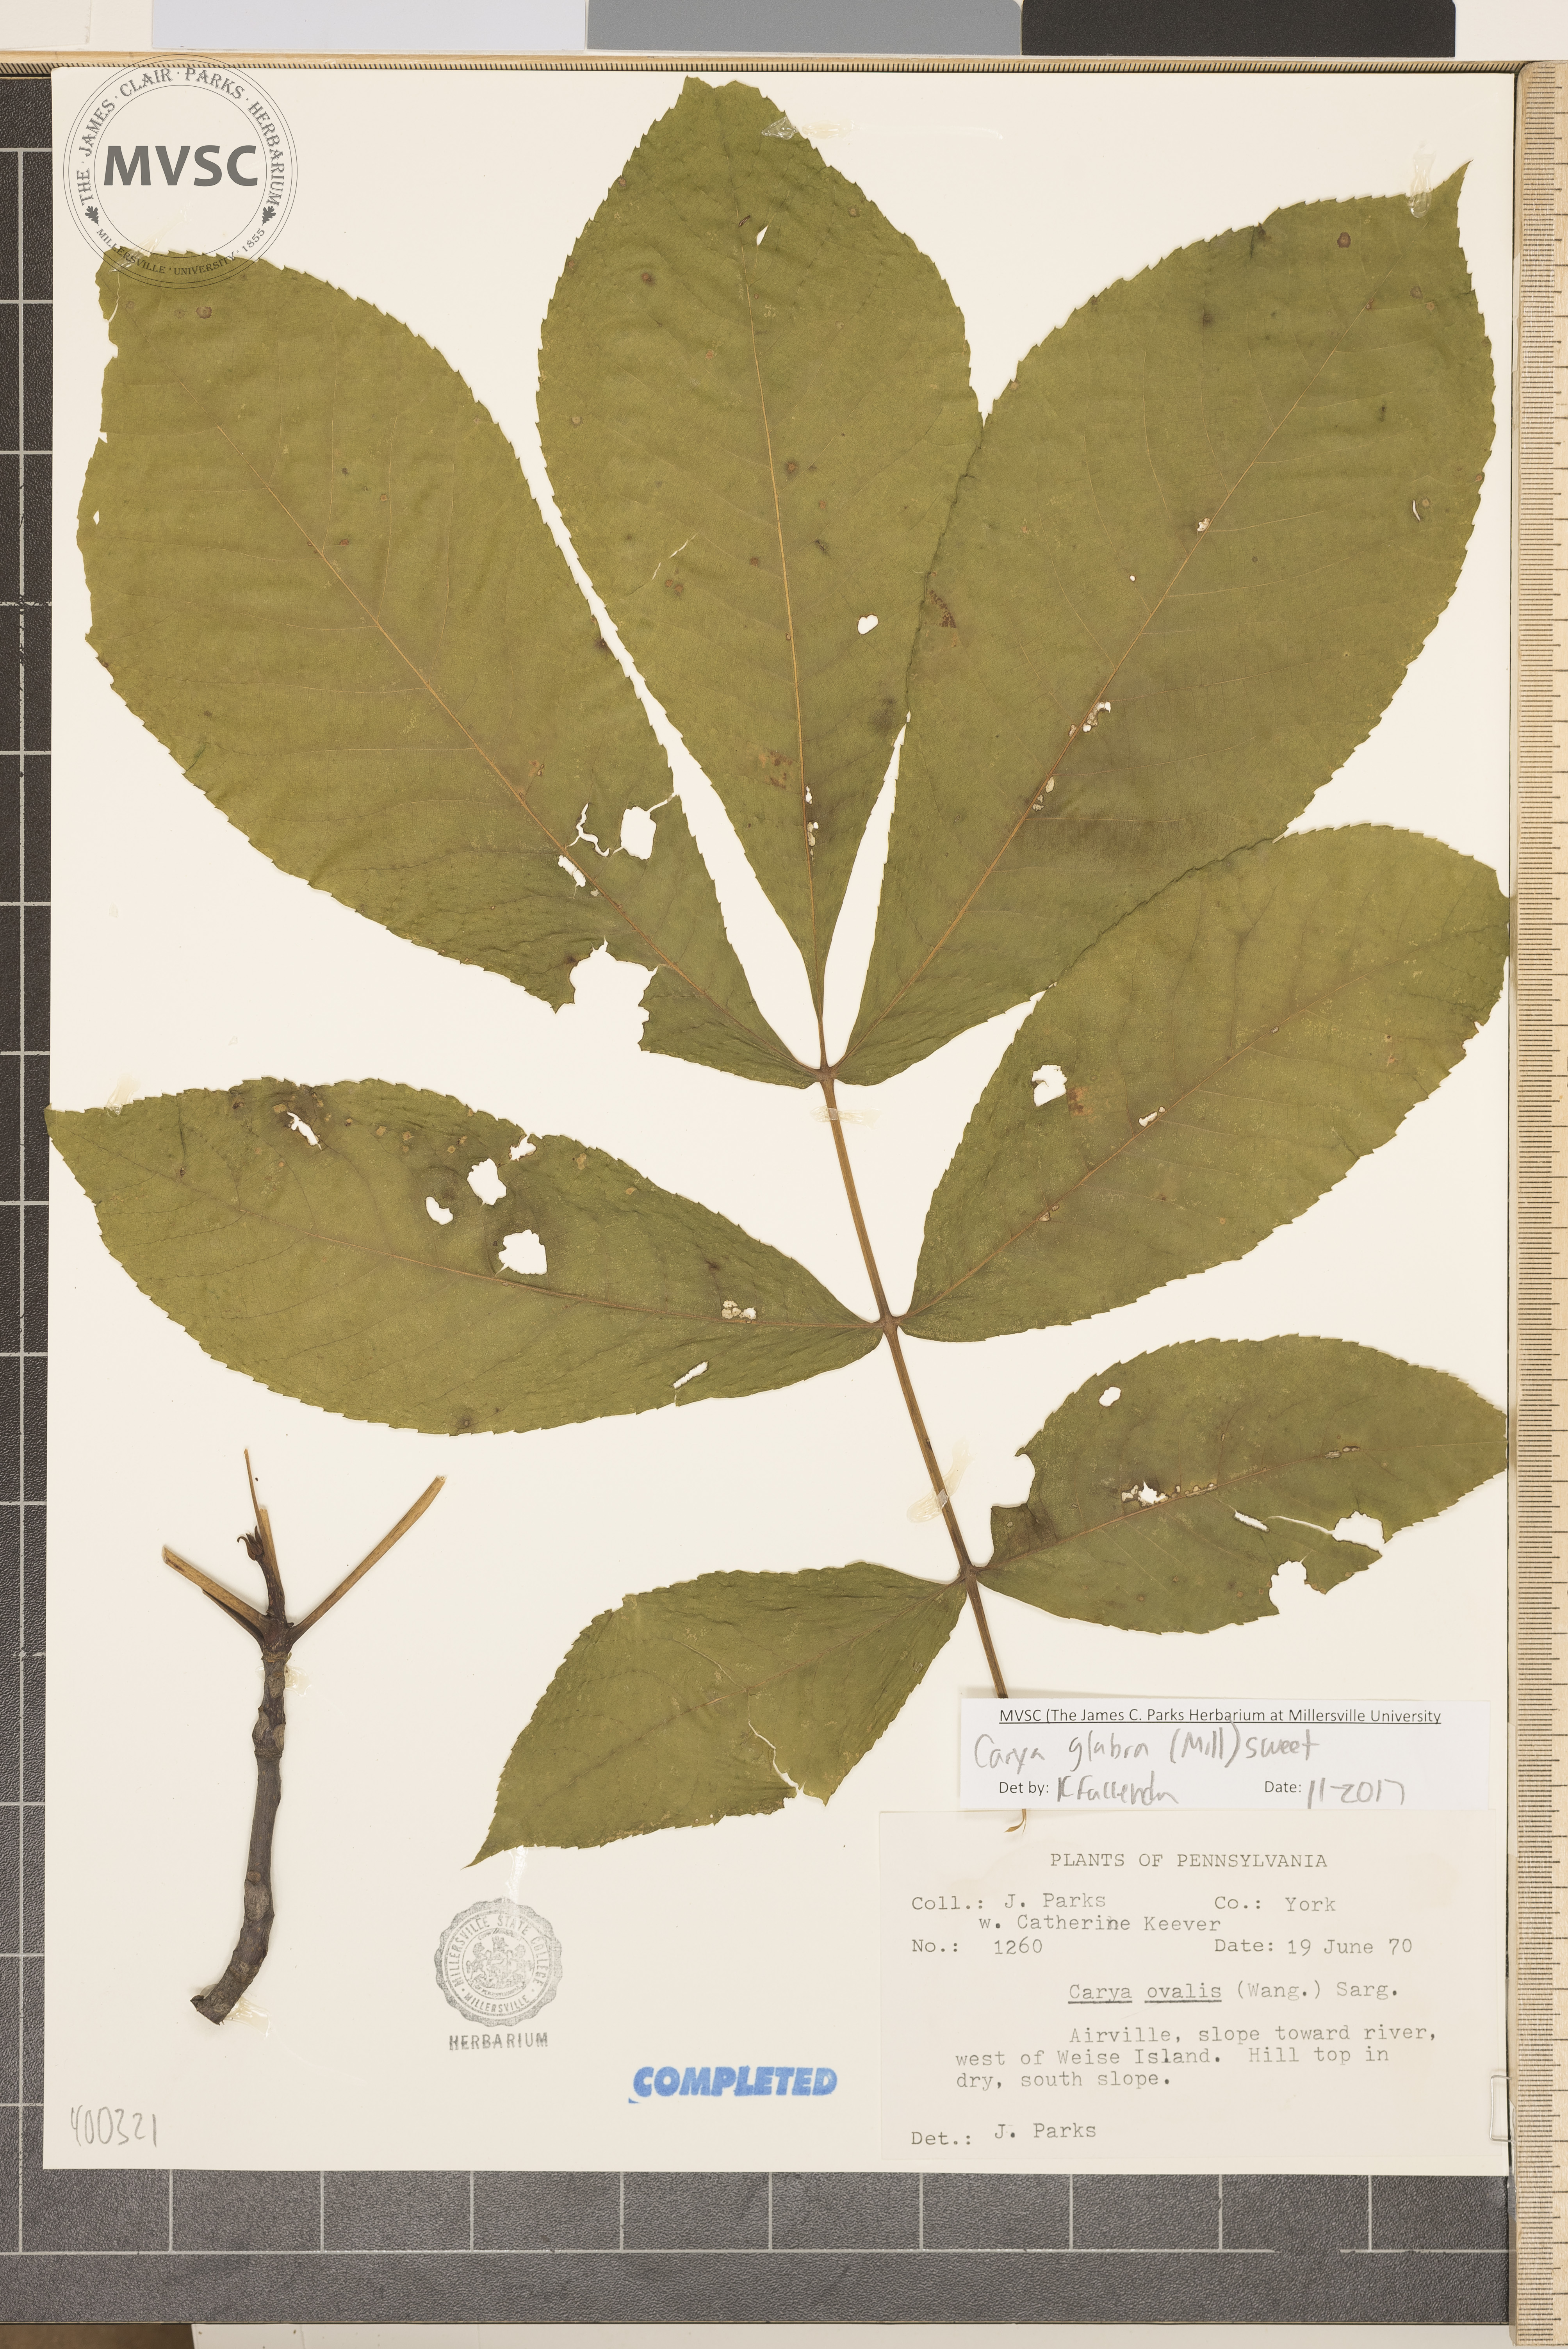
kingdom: Plantae
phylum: Tracheophyta
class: Magnoliopsida
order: Fagales
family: Juglandaceae
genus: Carya
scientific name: Carya glabra
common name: red hickory
